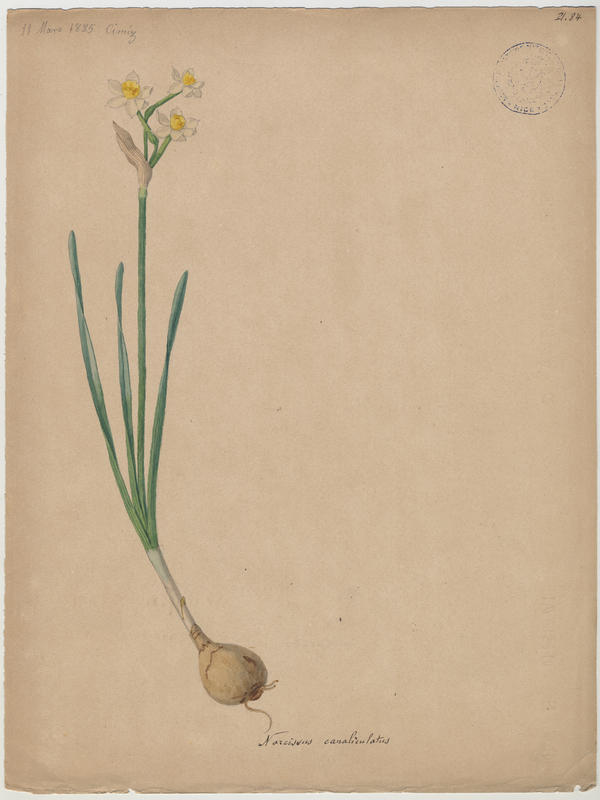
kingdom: Plantae
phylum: Tracheophyta
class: Liliopsida
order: Asparagales
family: Amaryllidaceae
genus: Narcissus
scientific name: Narcissus tazetta
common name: Bunch-flowered daffodil
